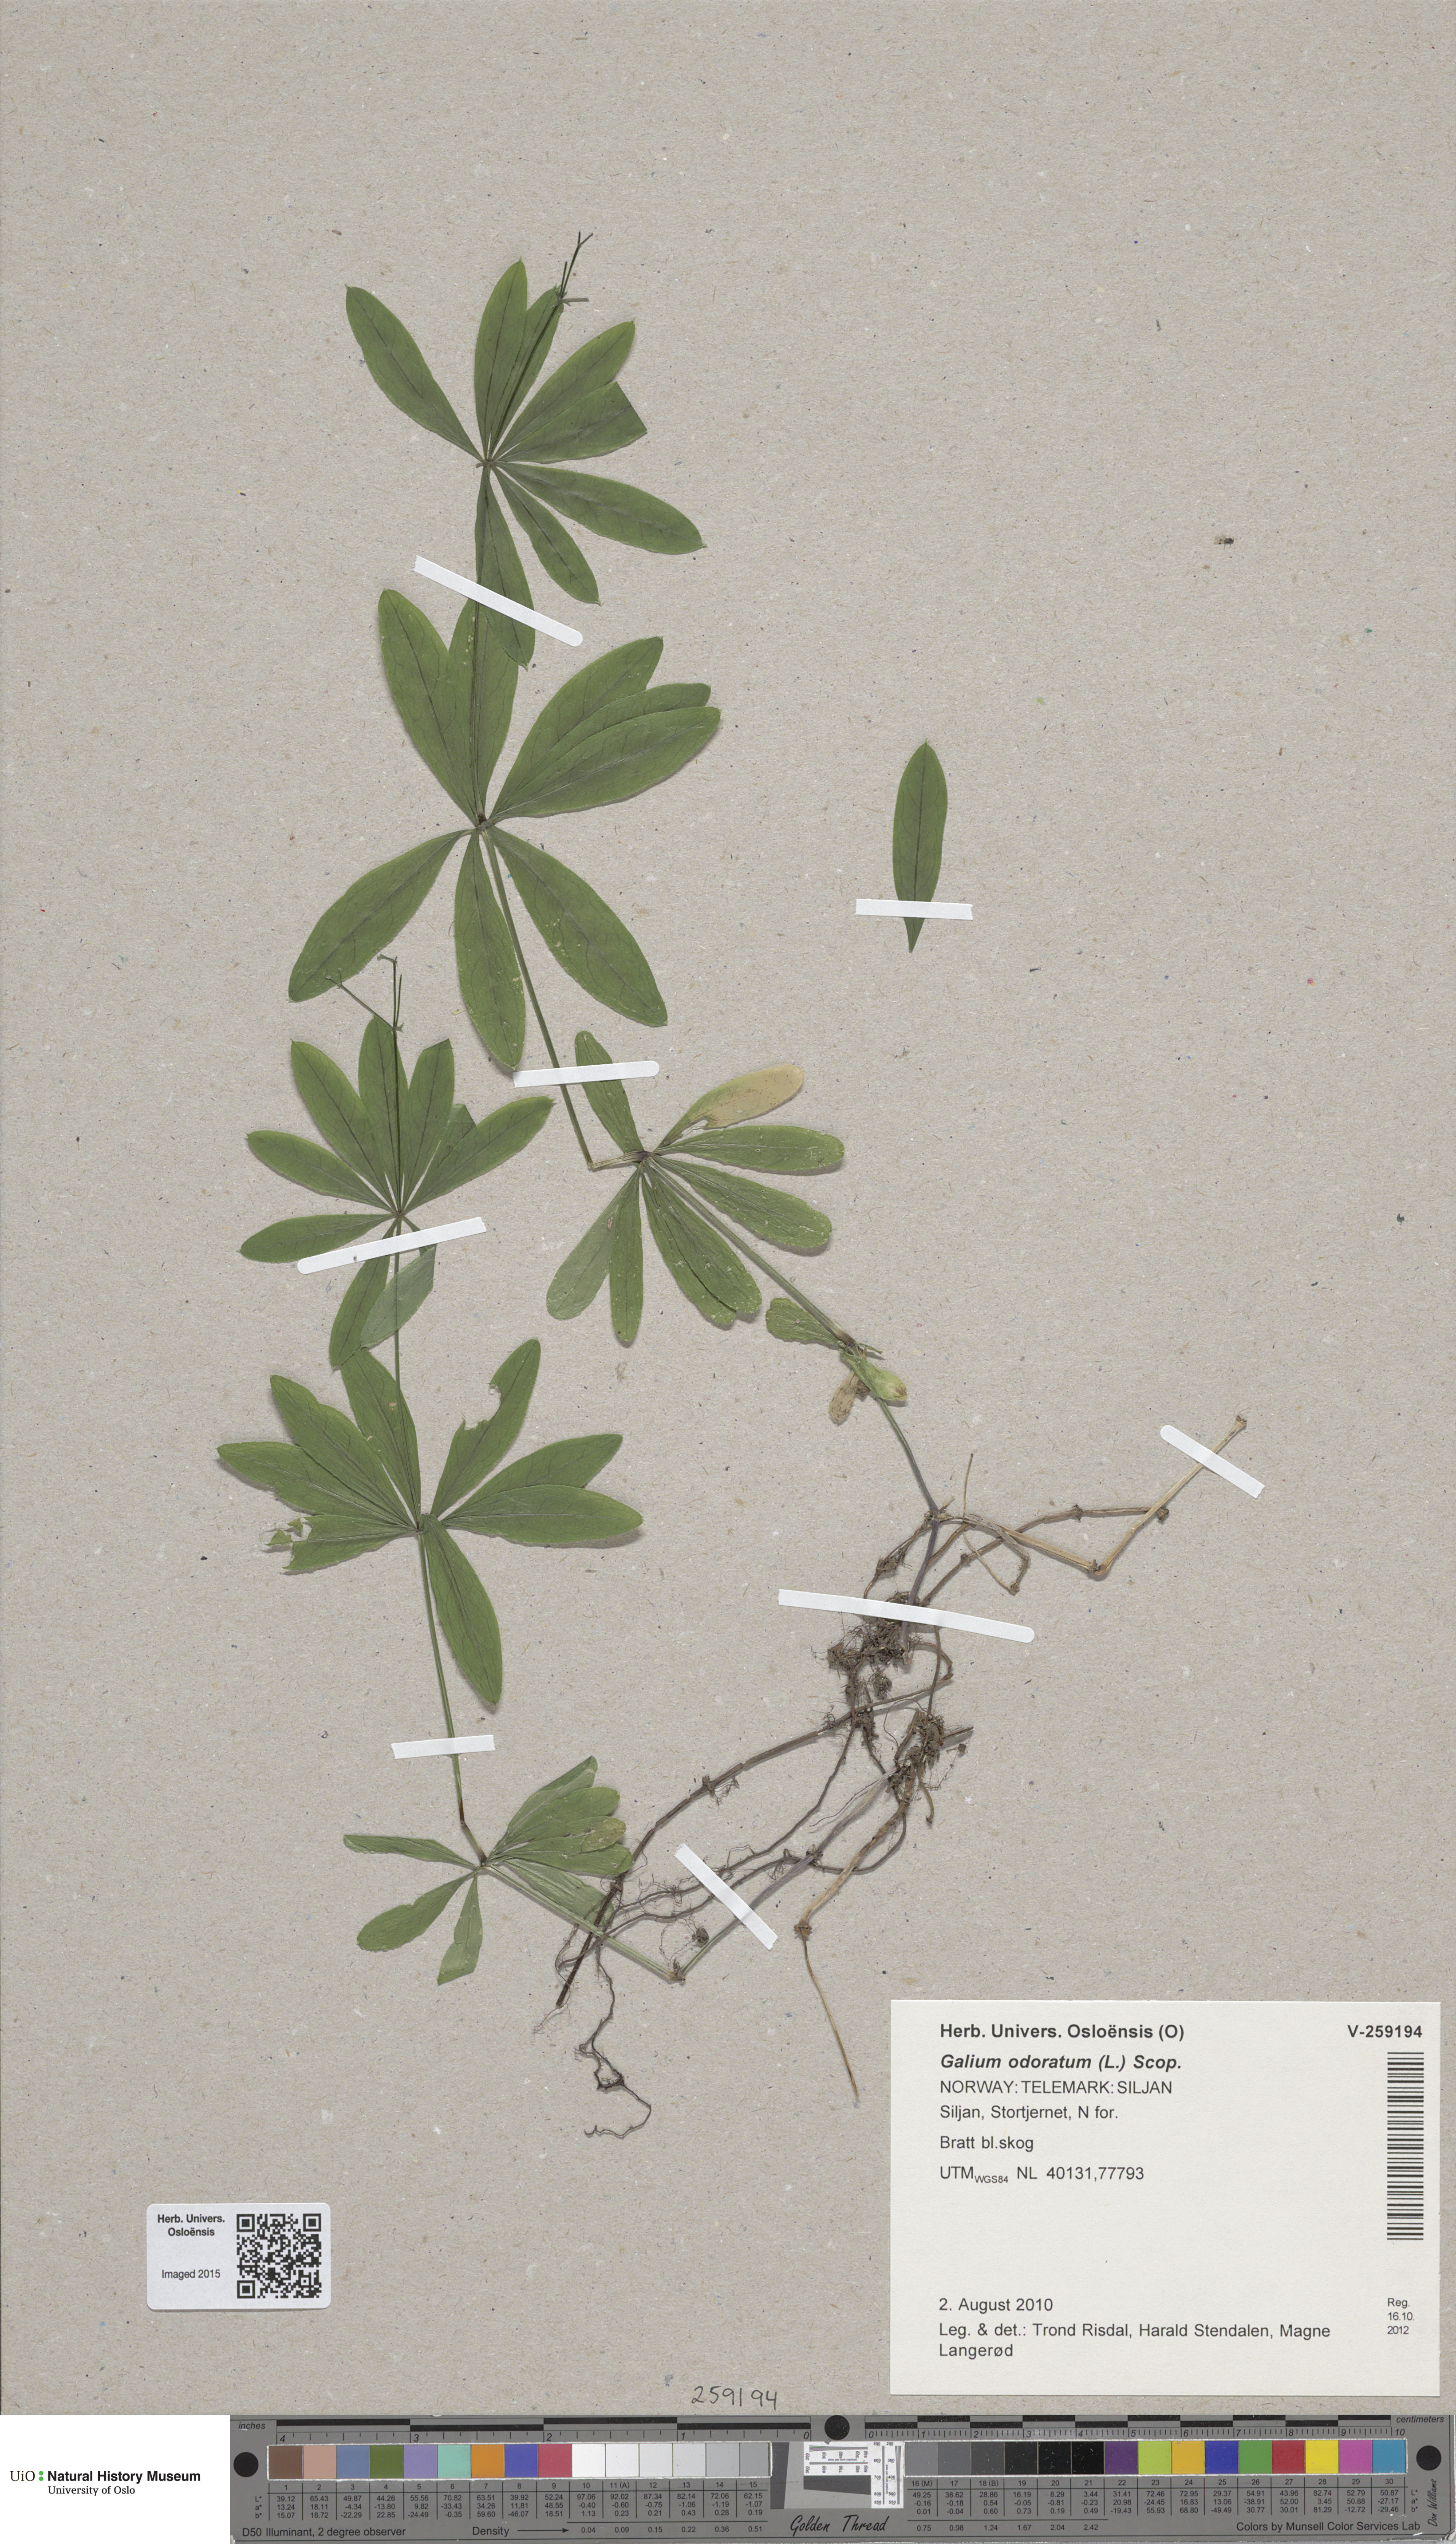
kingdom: Plantae
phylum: Tracheophyta
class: Magnoliopsida
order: Gentianales
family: Rubiaceae
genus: Galium
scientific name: Galium odoratum
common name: Sweet woodruff
